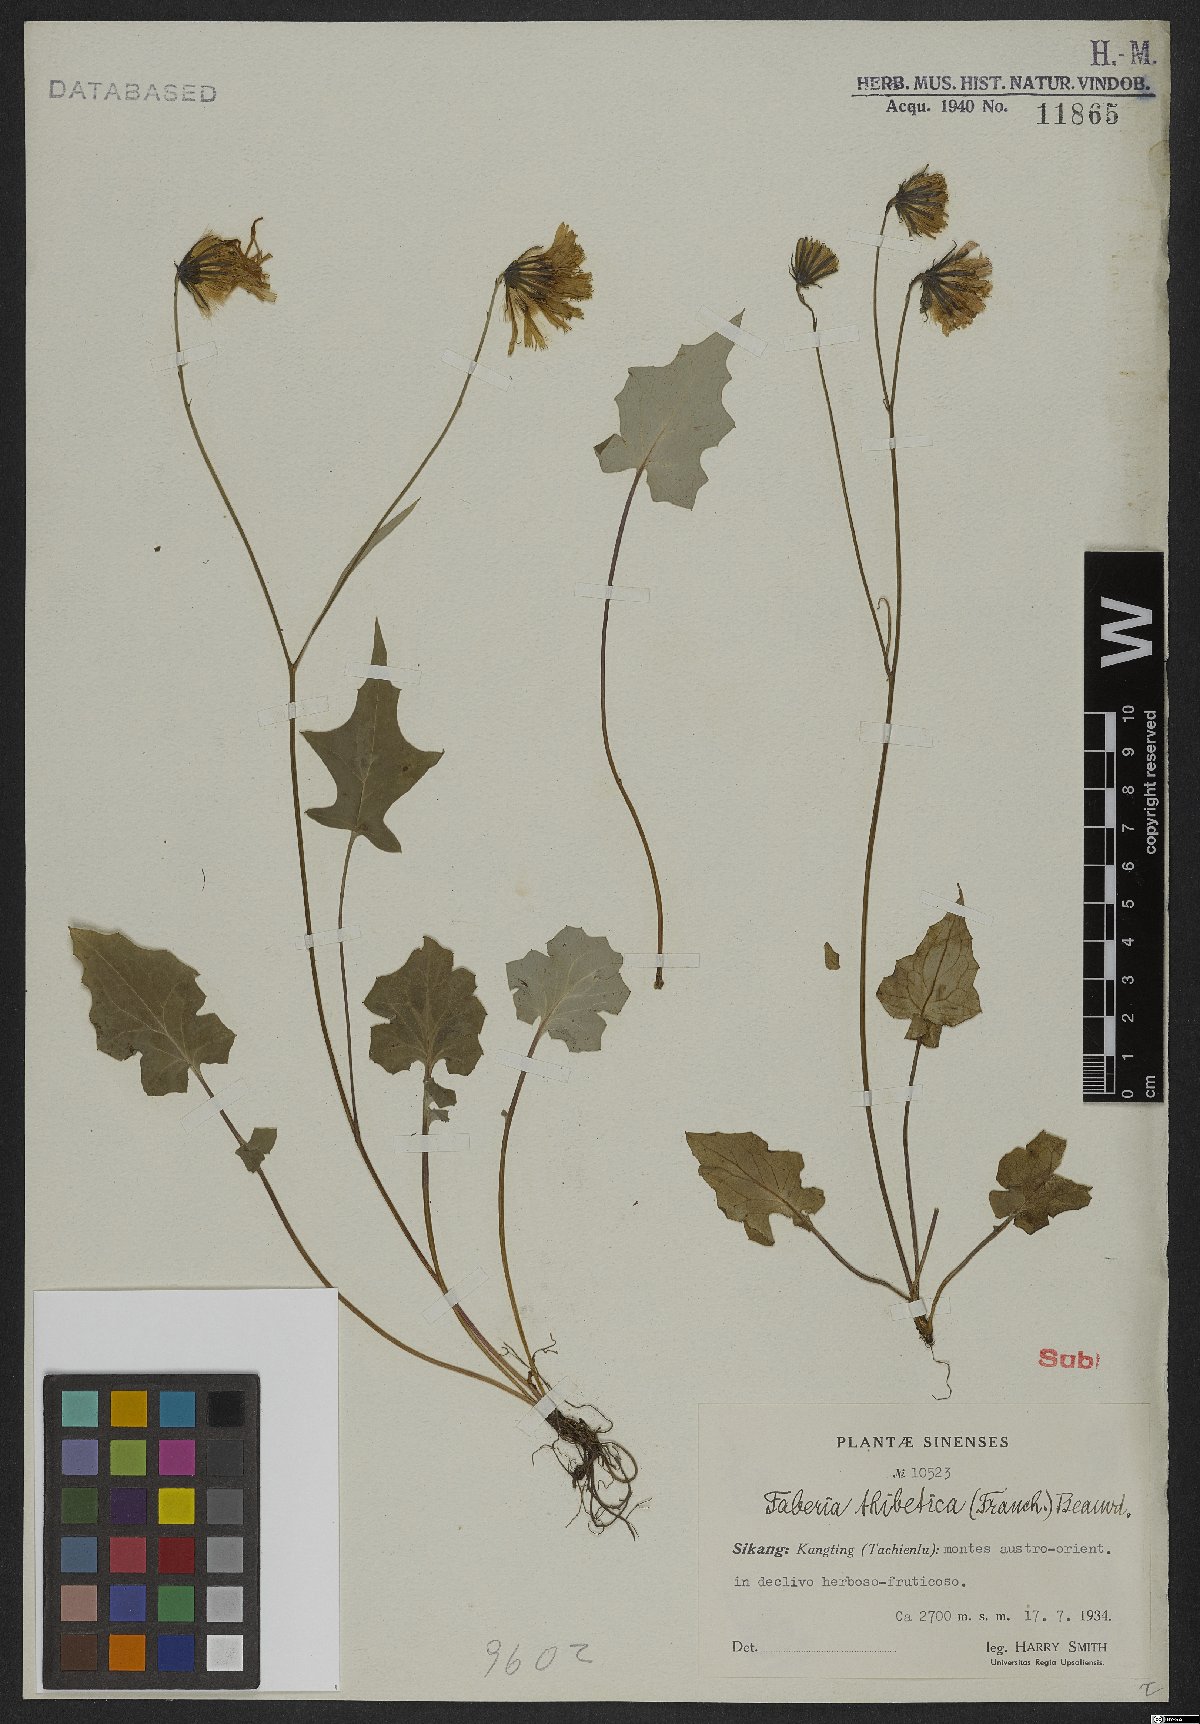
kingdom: Plantae
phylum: Tracheophyta
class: Magnoliopsida
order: Asterales
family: Asteraceae
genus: Faberia
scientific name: Faberia thibetica
